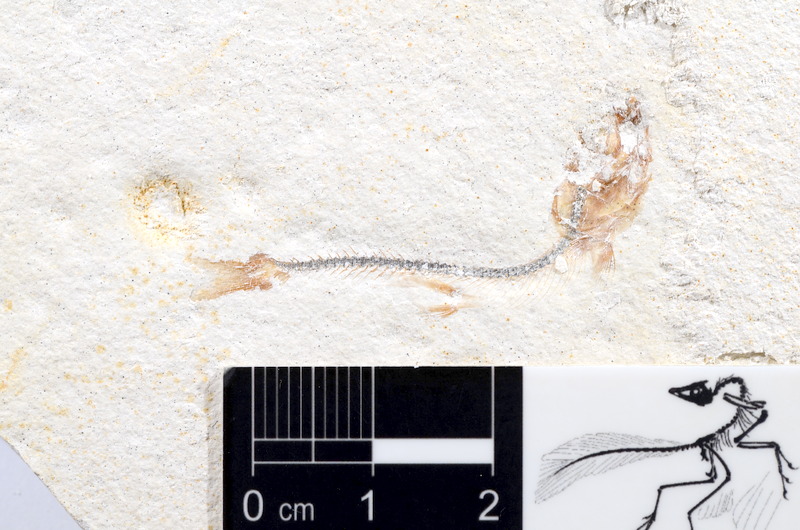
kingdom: Animalia
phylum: Chordata
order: Salmoniformes
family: Orthogonikleithridae
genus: Orthogonikleithrus
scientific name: Orthogonikleithrus hoelli
